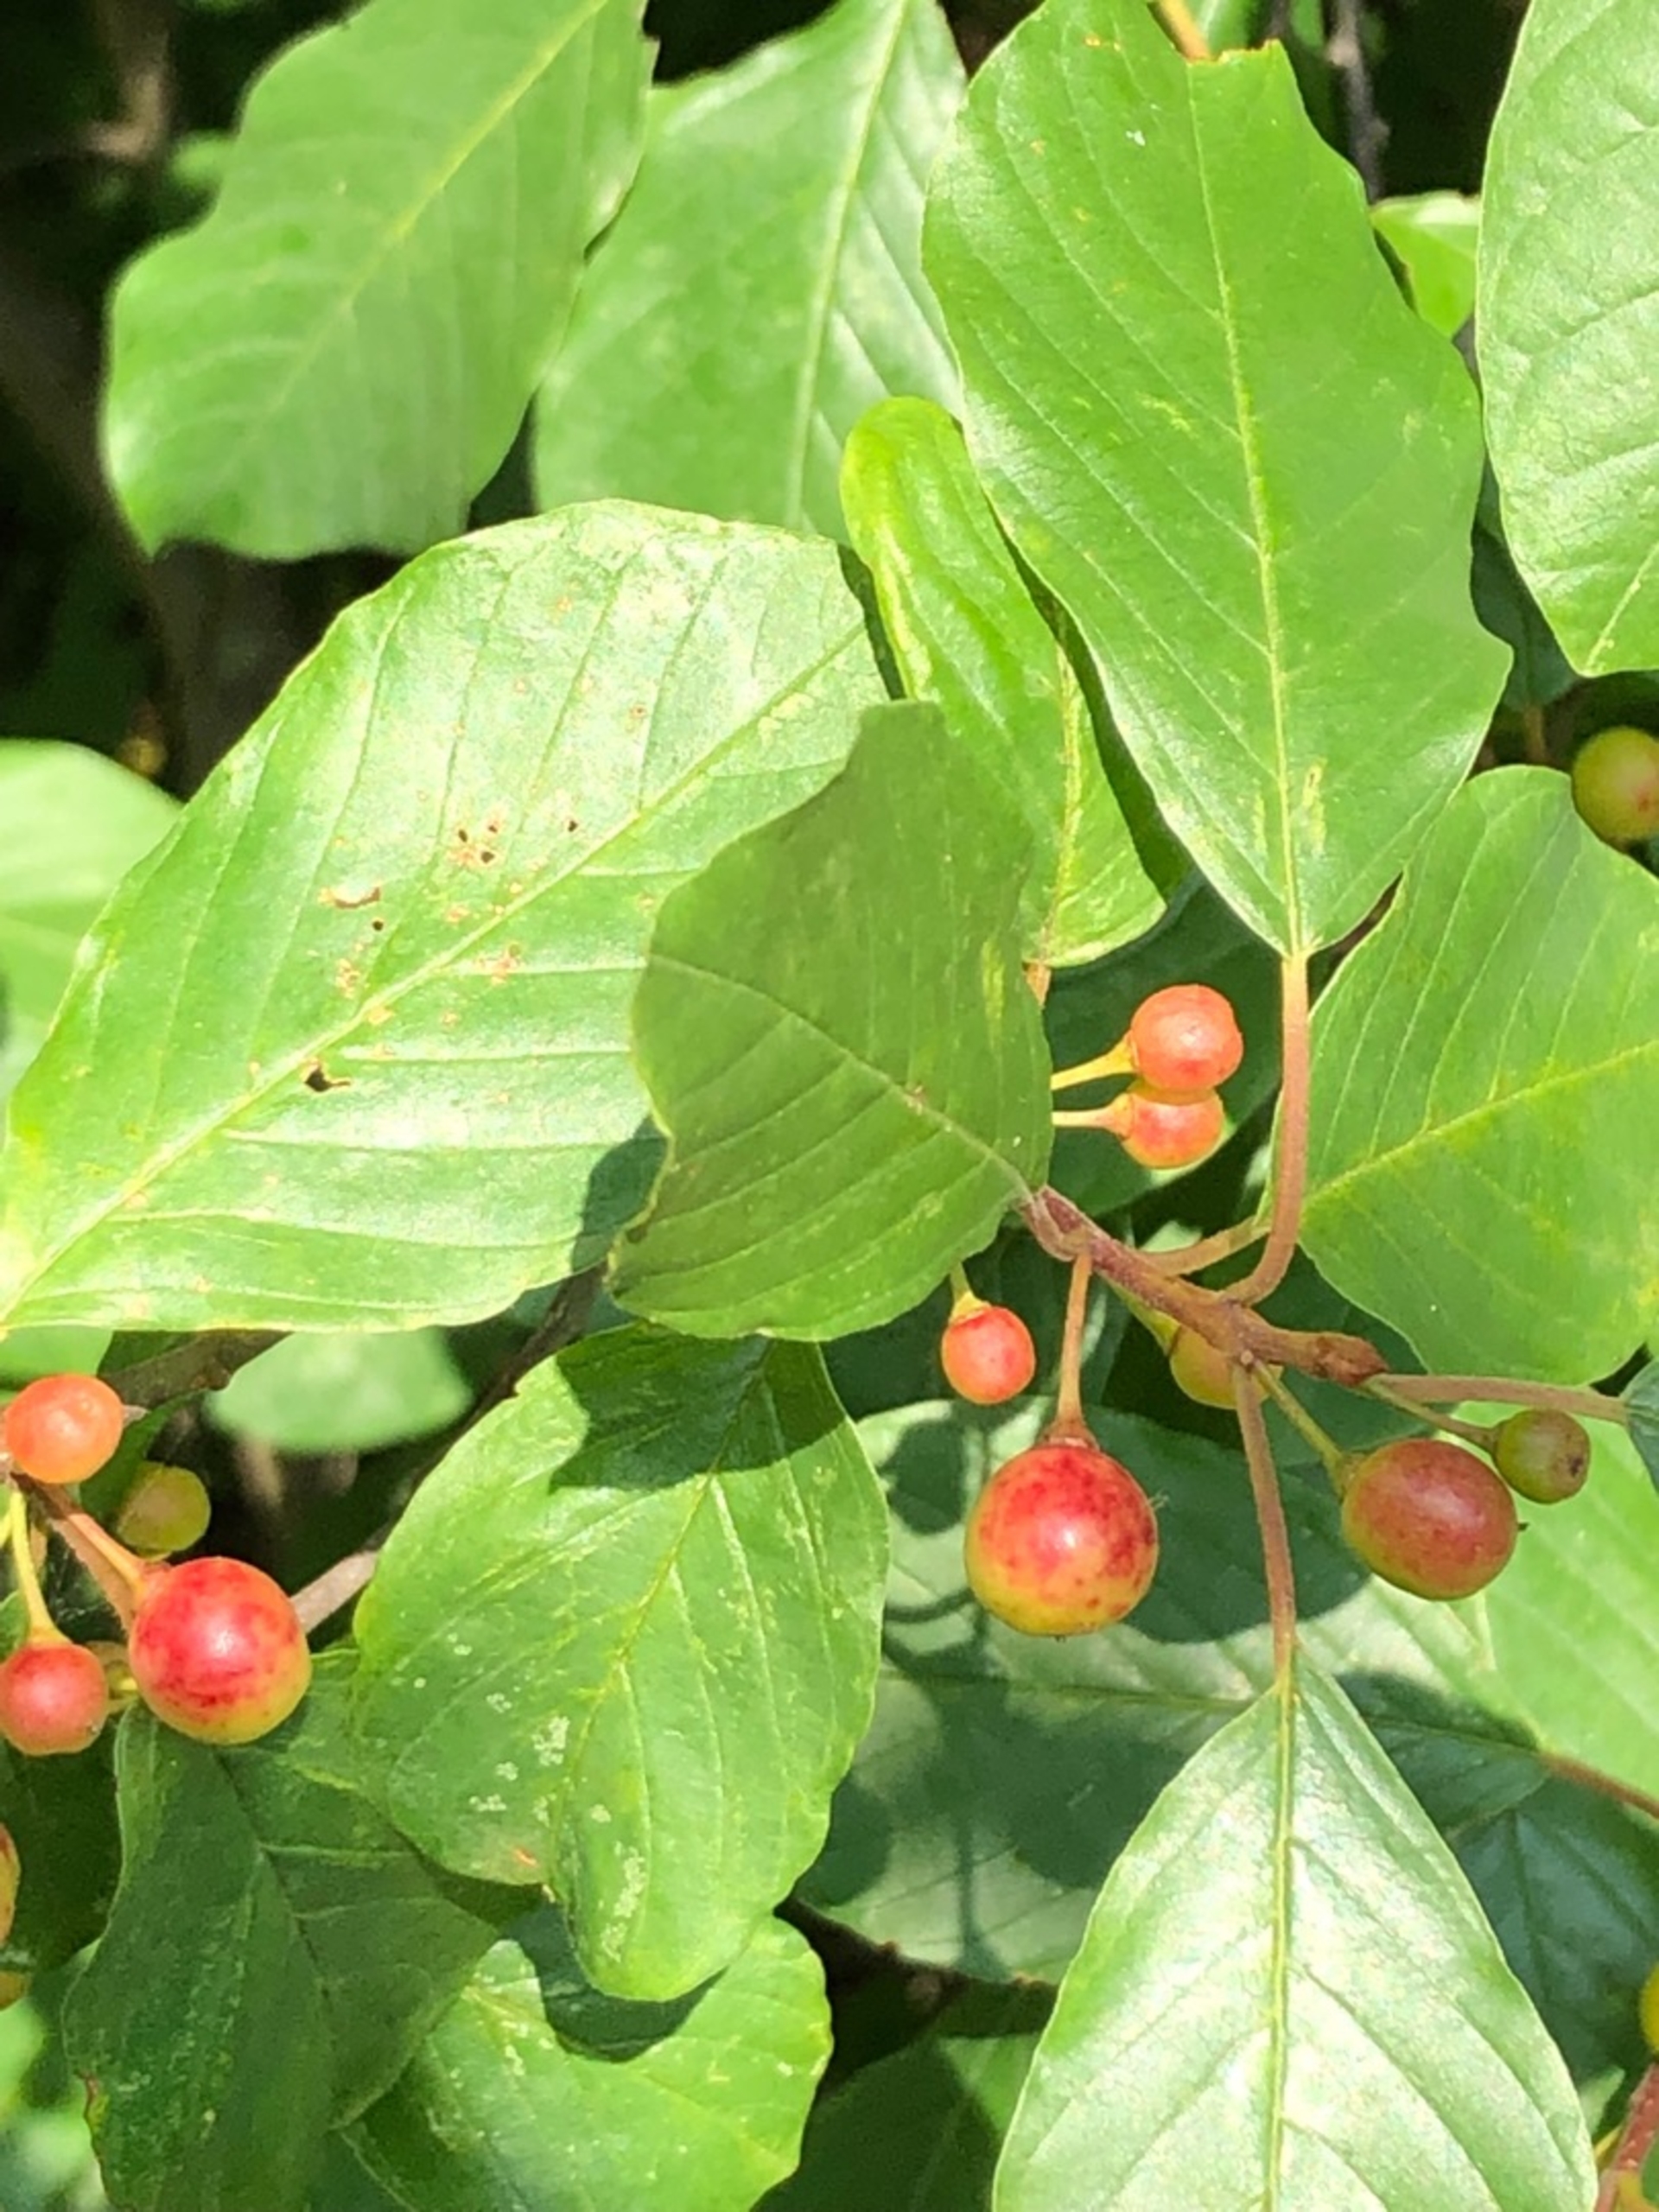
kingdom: Plantae
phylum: Tracheophyta
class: Magnoliopsida
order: Rosales
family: Rhamnaceae
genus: Frangula
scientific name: Frangula alnus
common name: Tørst
